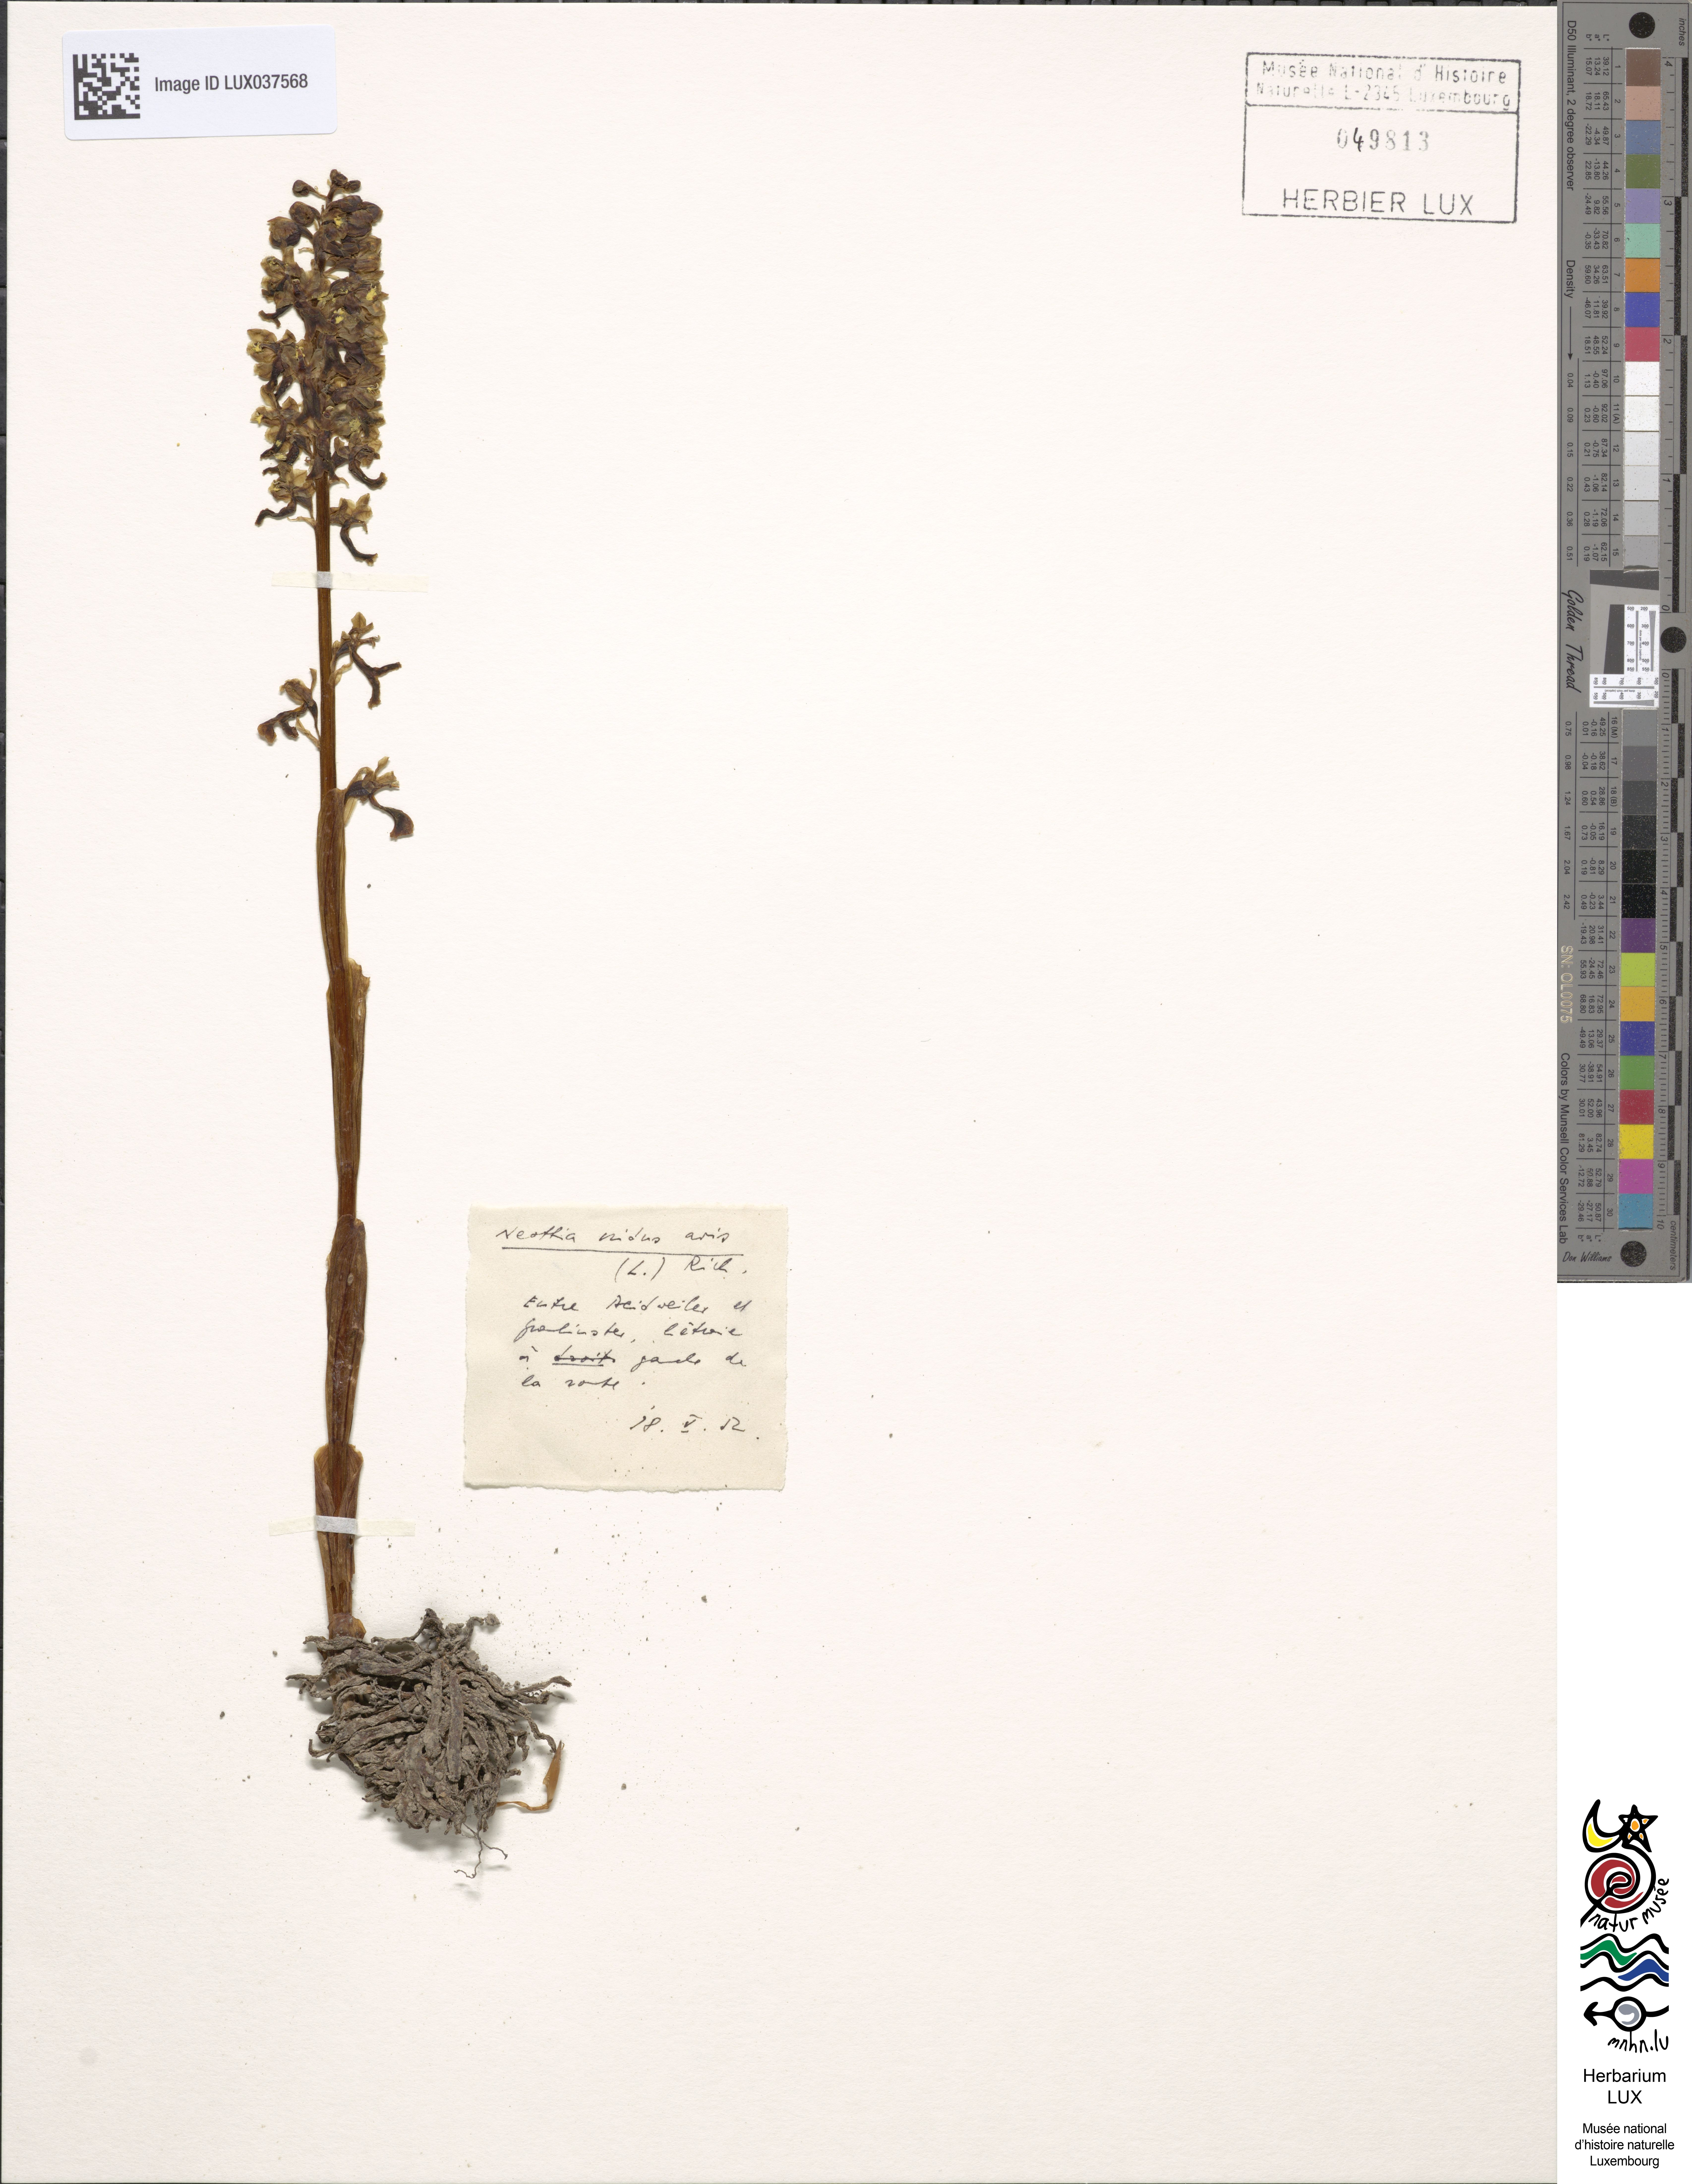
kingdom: Plantae
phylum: Tracheophyta
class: Liliopsida
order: Asparagales
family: Orchidaceae
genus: Neottia
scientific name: Neottia nidus-avis
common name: Bird's-nest orchid
